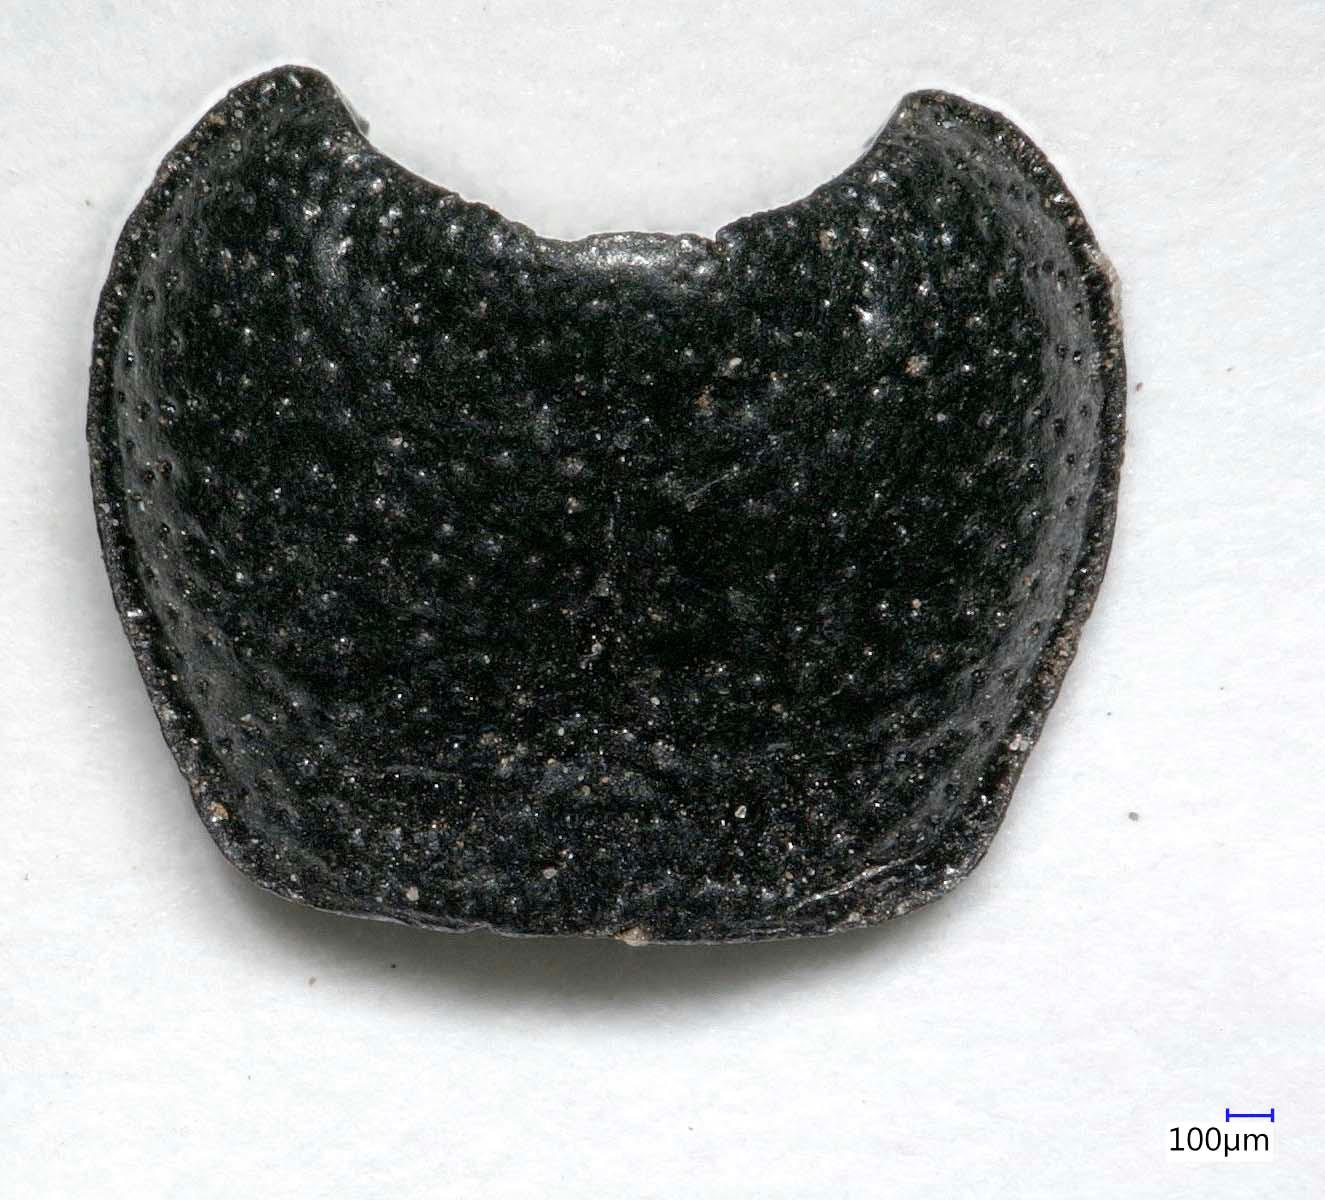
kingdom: Animalia
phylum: Arthropoda
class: Insecta
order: Coleoptera
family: Carabidae
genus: Dicheirus
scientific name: Dicheirus dilatatus
